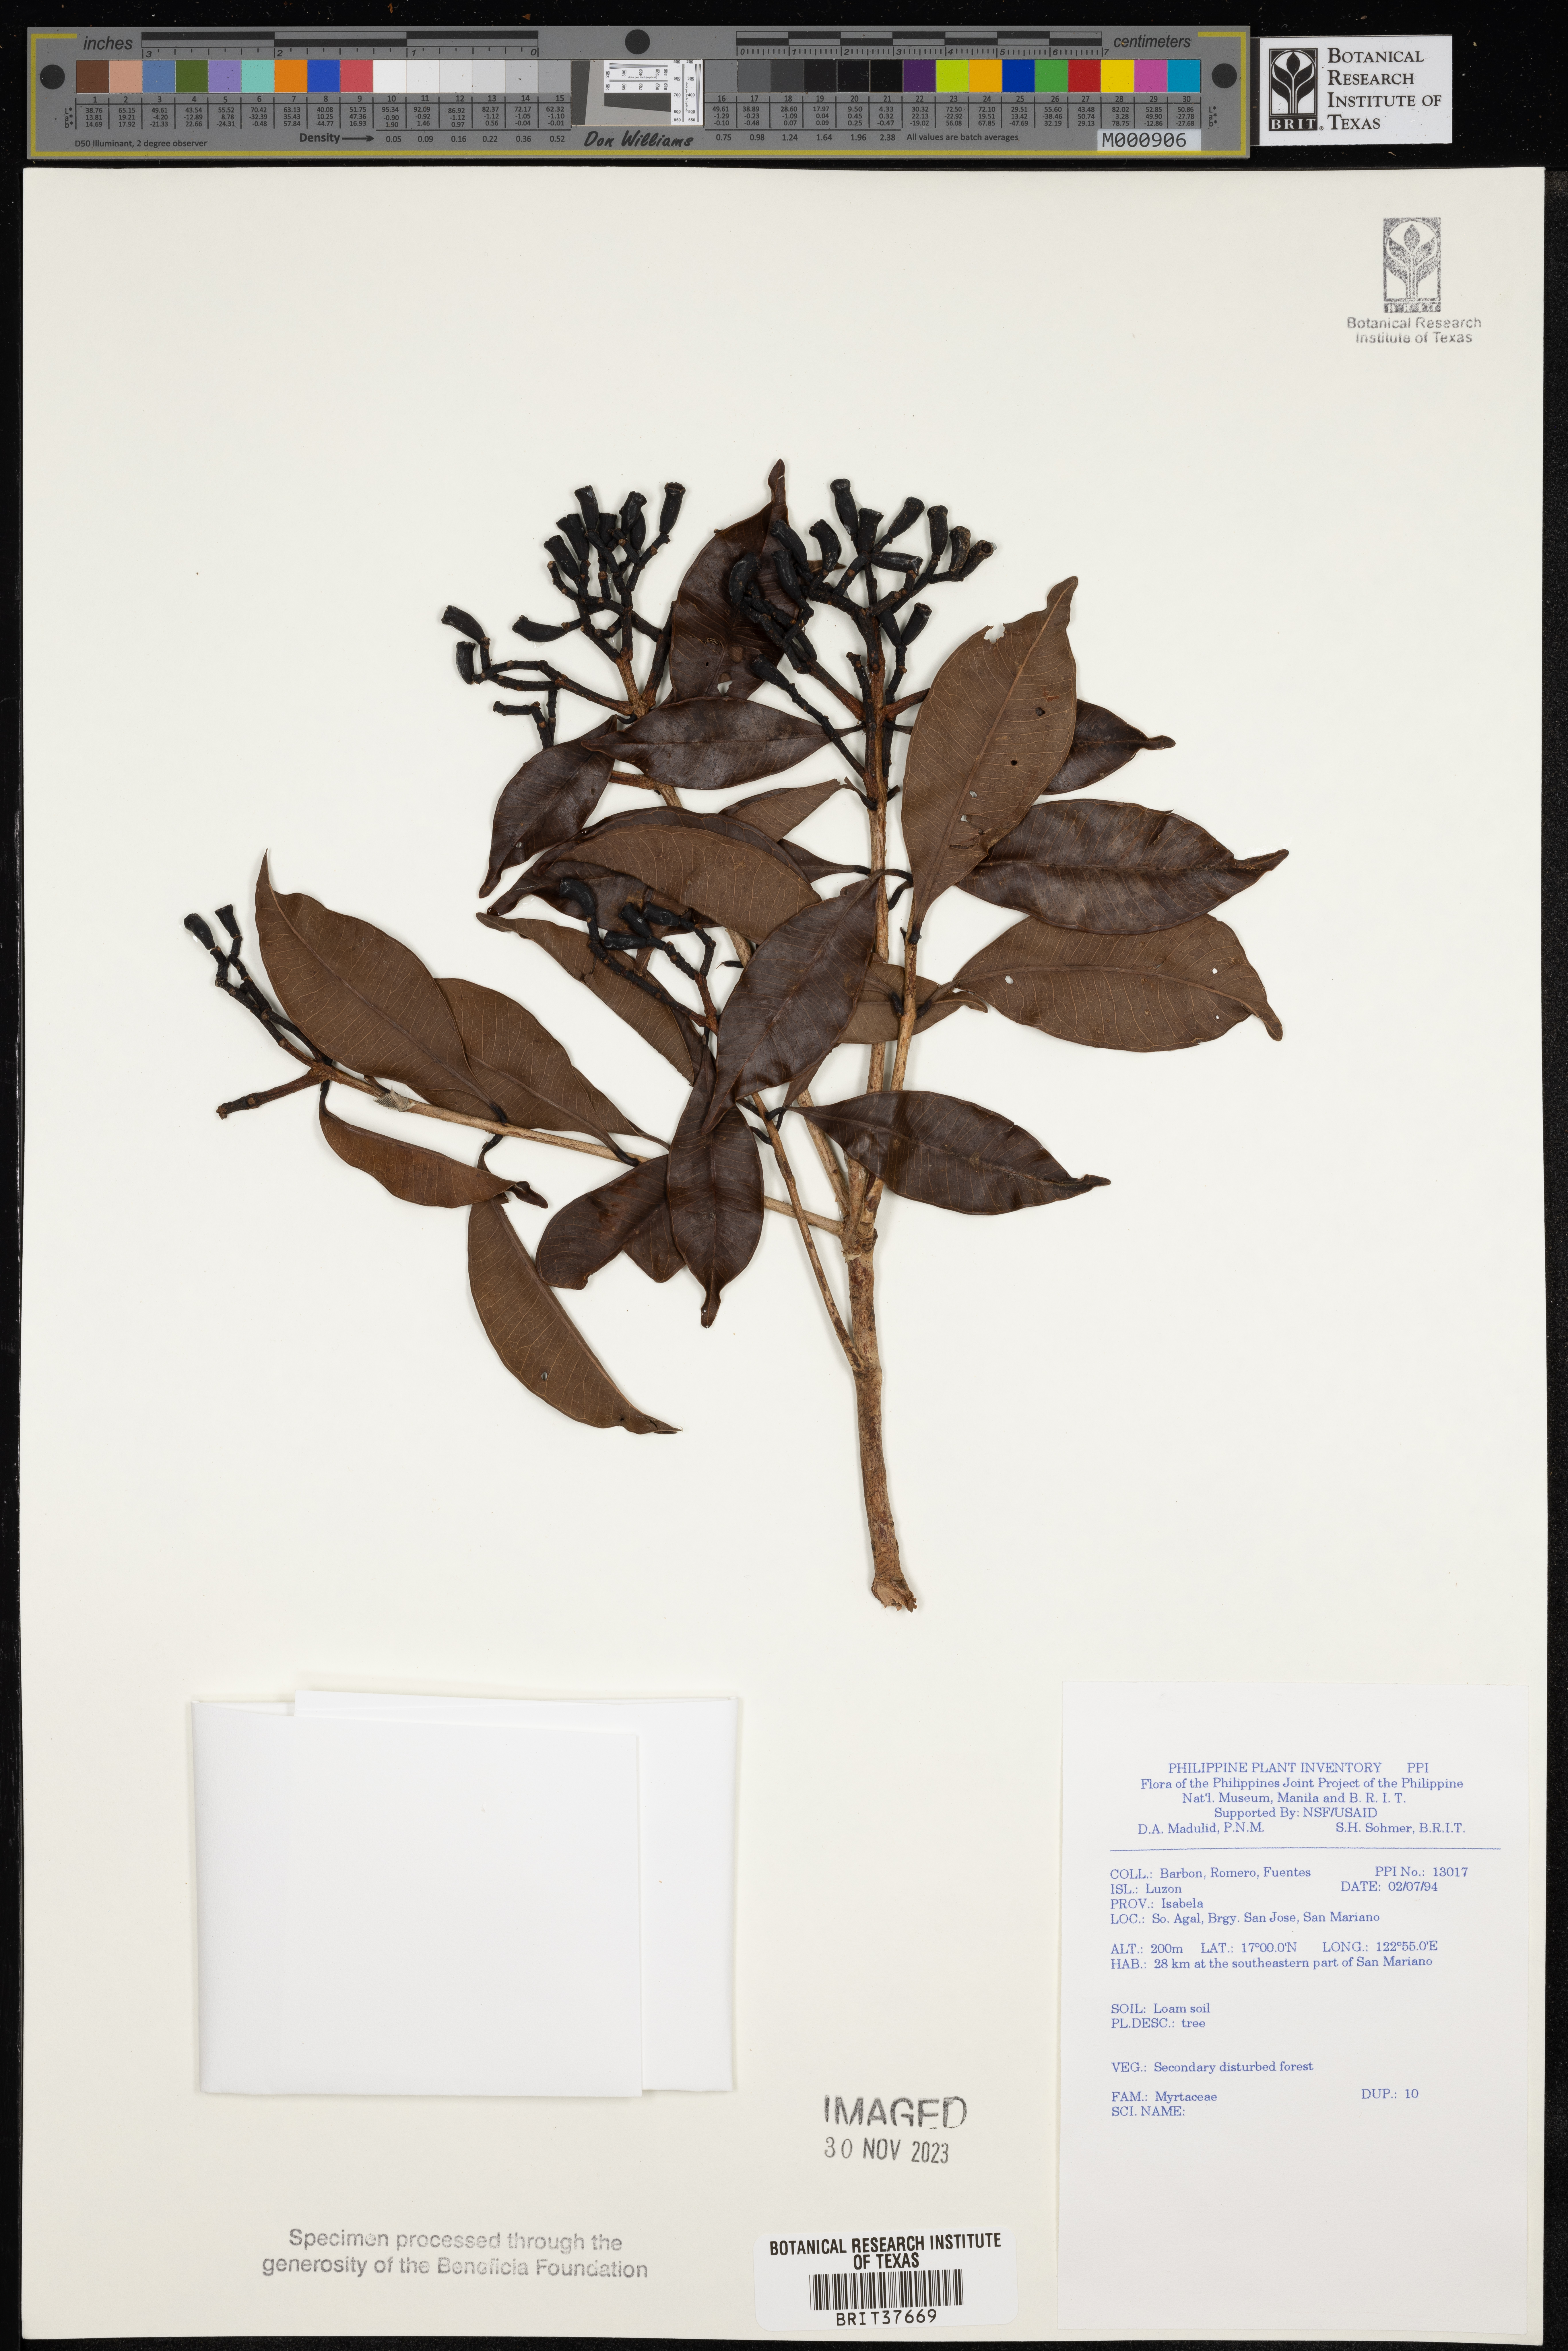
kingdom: Plantae
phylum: Tracheophyta
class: Magnoliopsida
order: Myrtales
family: Myrtaceae
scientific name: Myrtaceae
